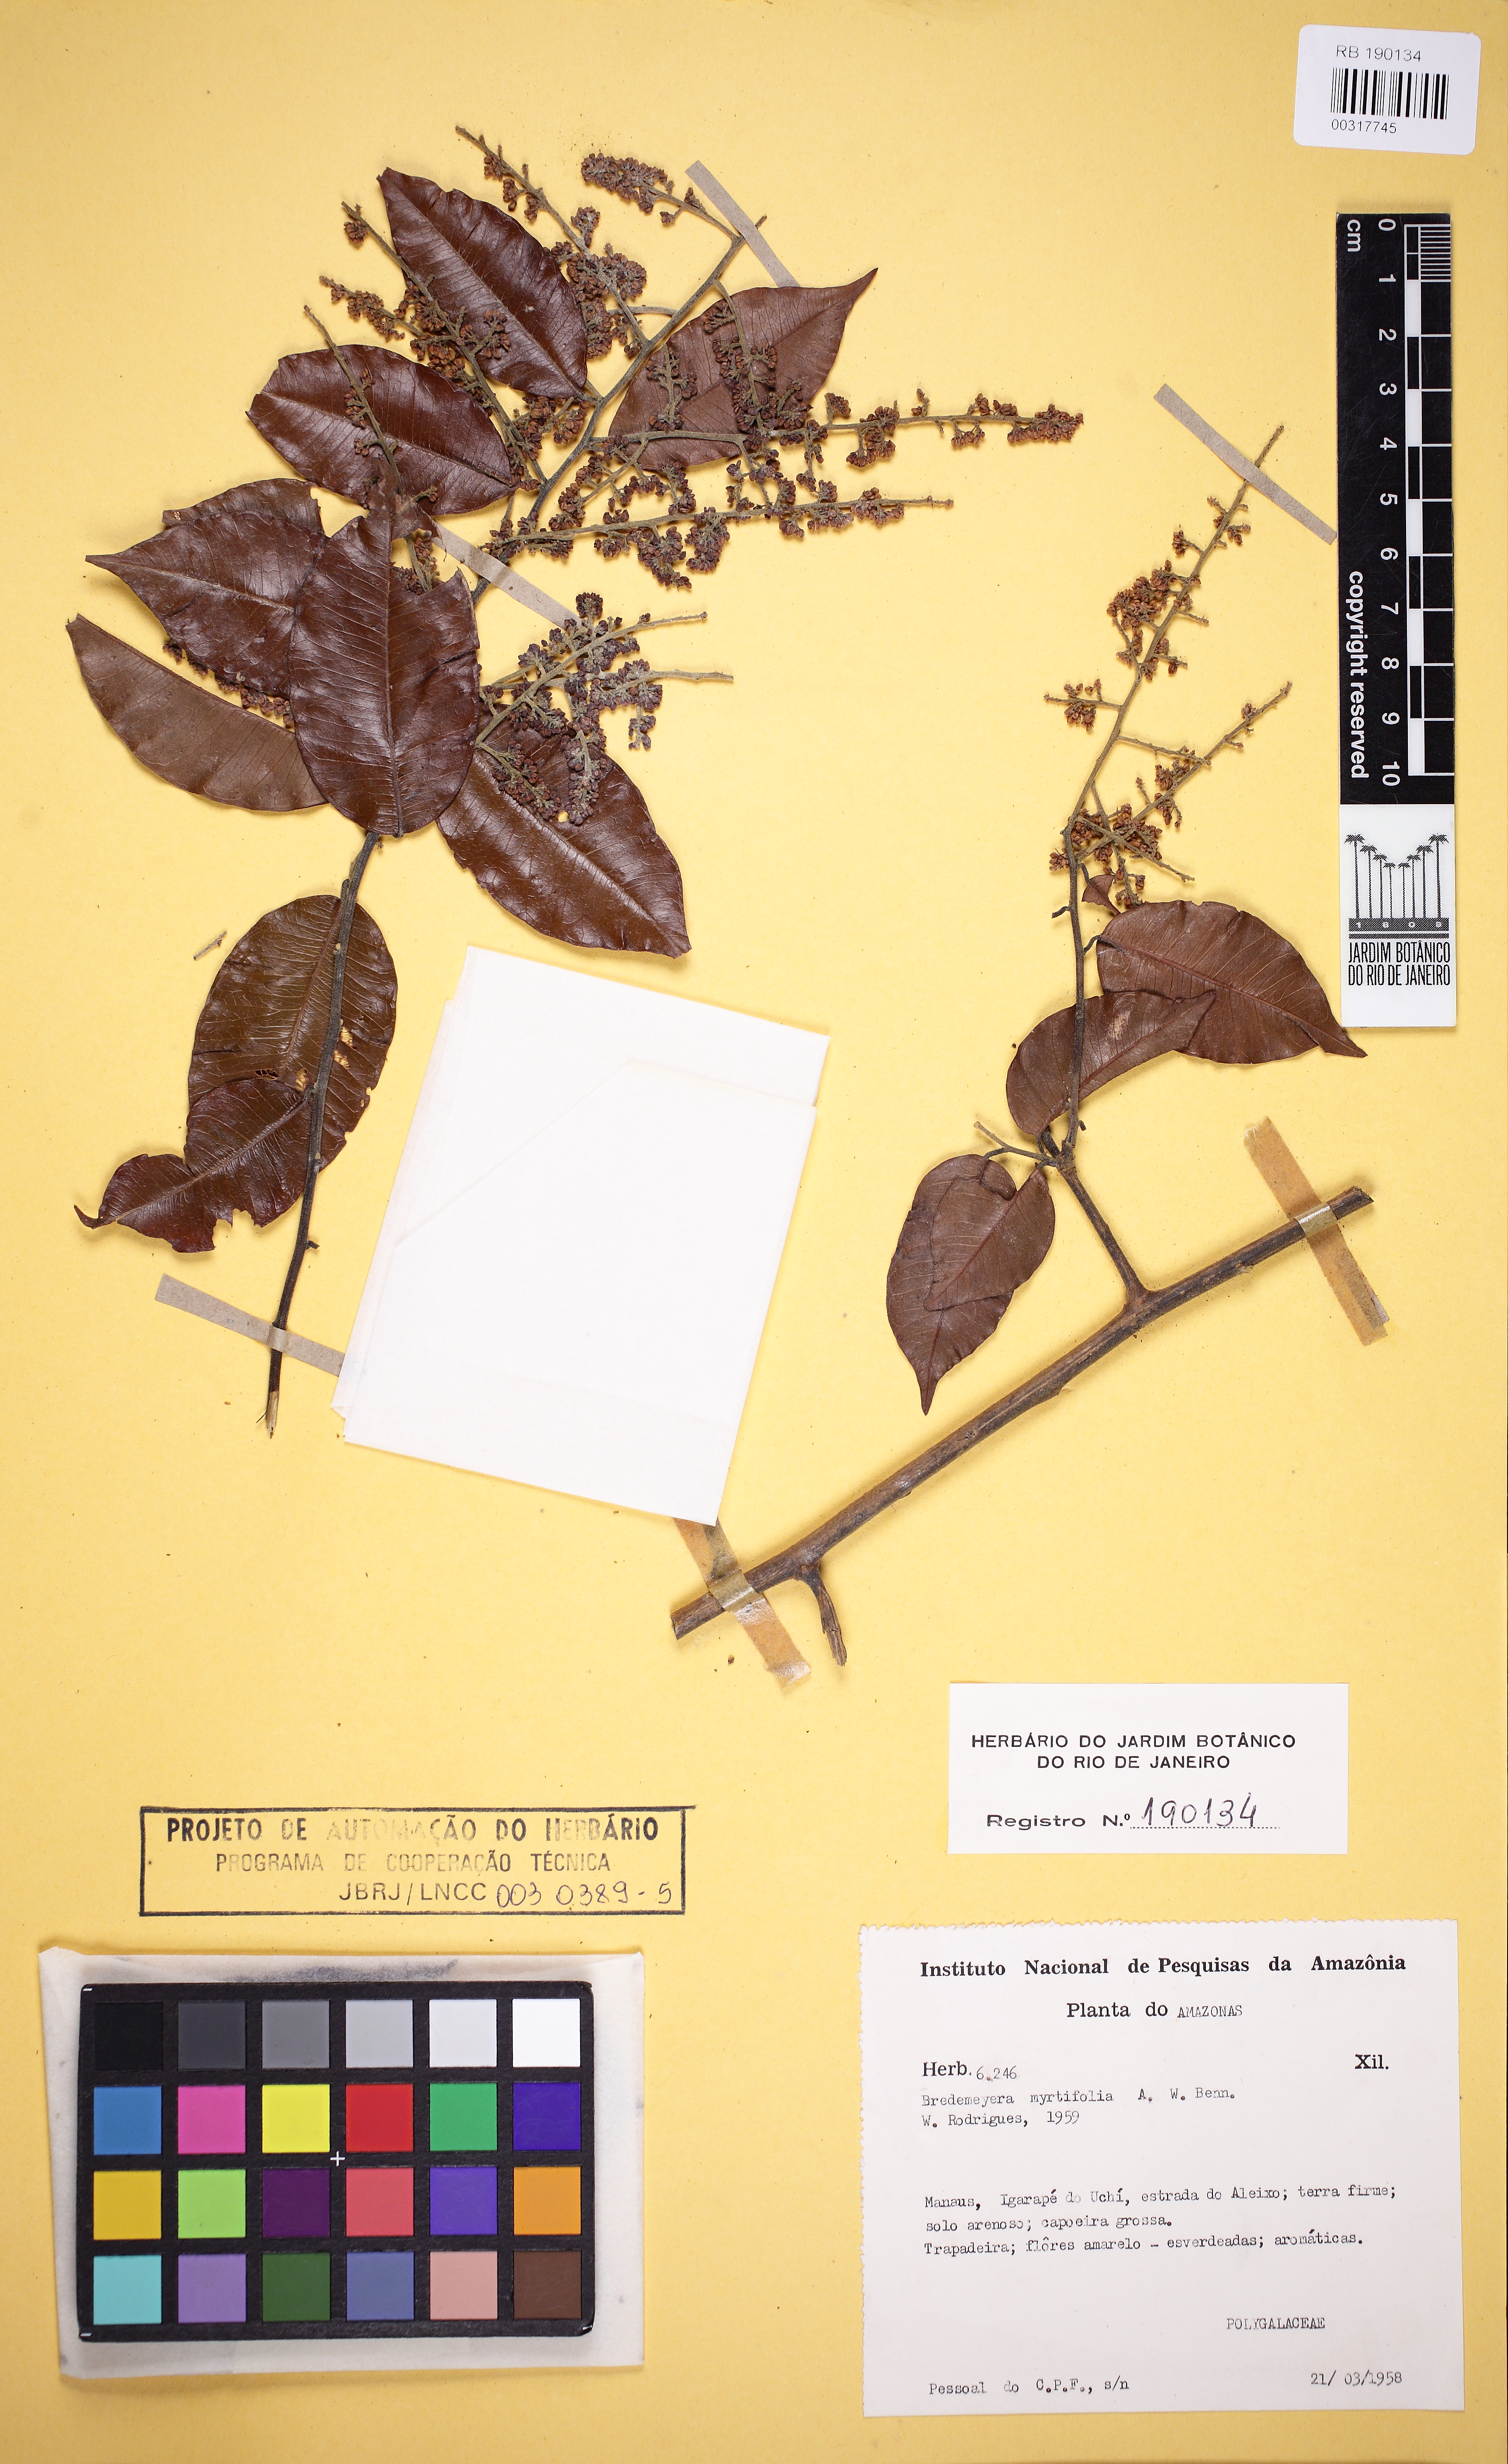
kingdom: Plantae
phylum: Tracheophyta
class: Magnoliopsida
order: Fabales
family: Polygalaceae
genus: Bredemeyera
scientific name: Bredemeyera densiflora
